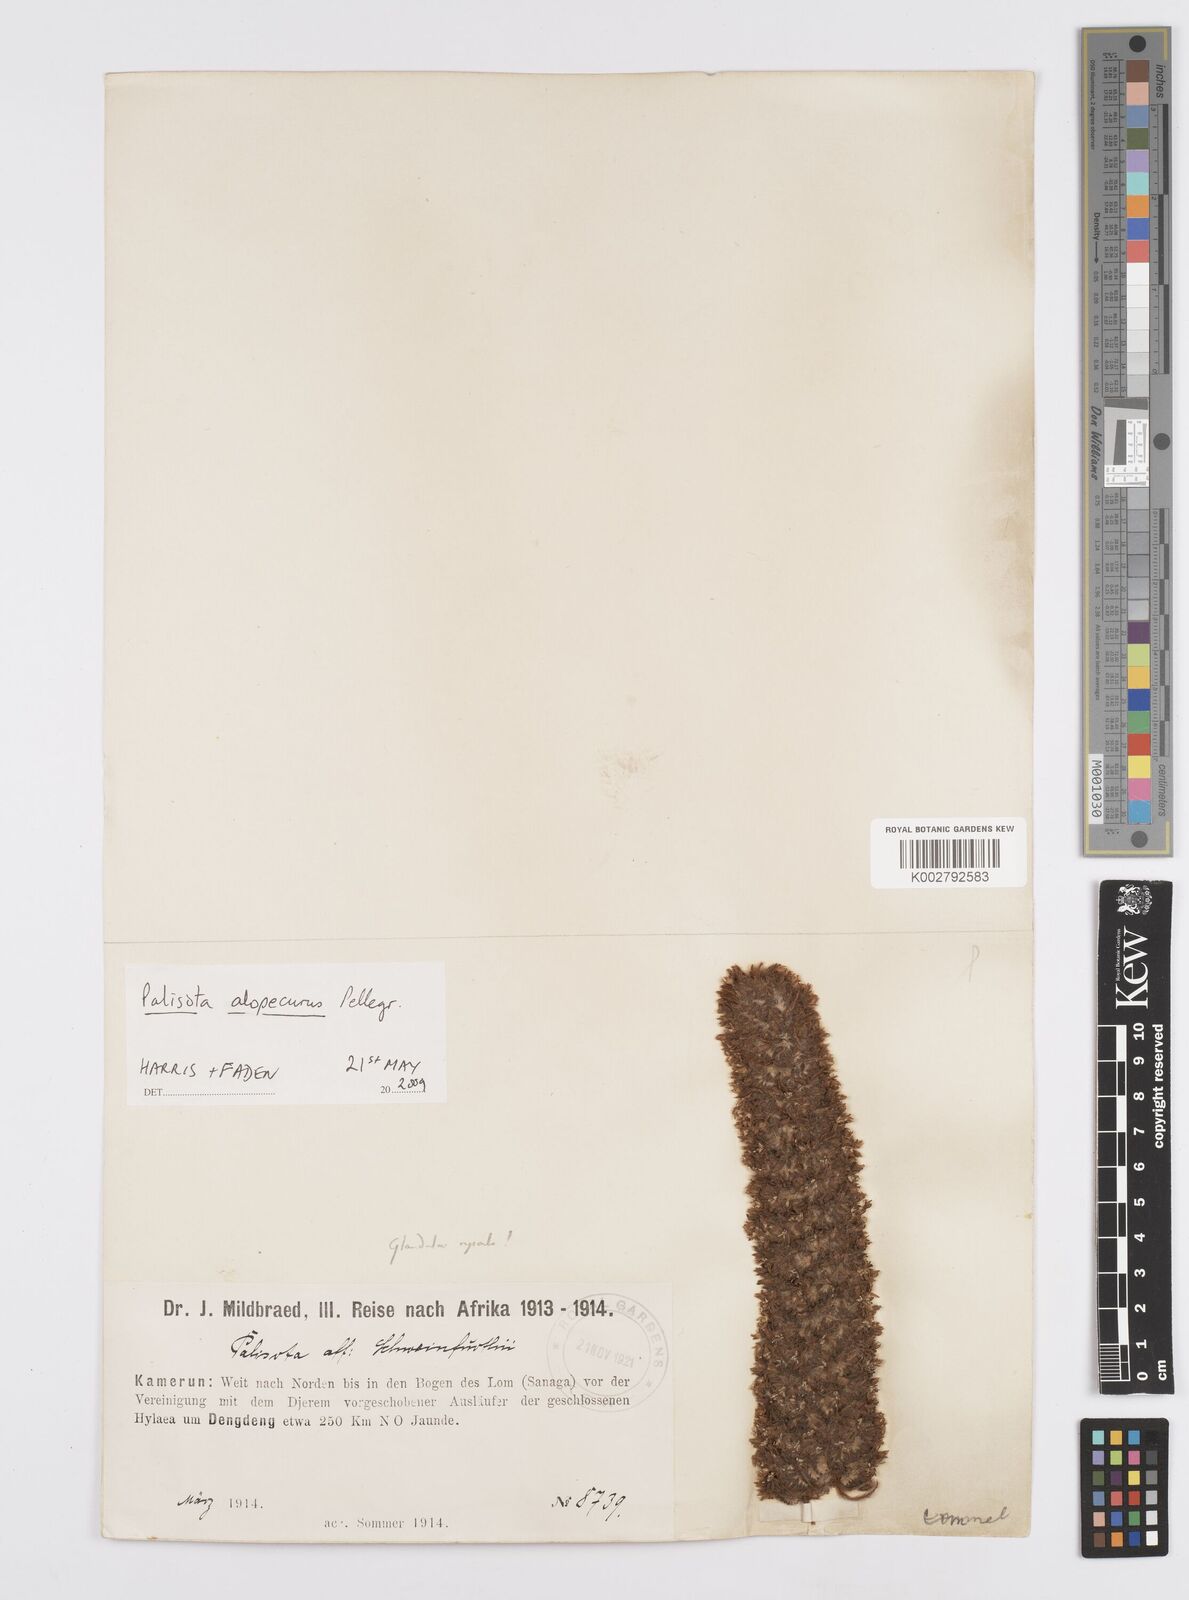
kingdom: Plantae
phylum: Tracheophyta
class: Liliopsida
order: Commelinales
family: Commelinaceae
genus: Palisota
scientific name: Palisota alopecurus
